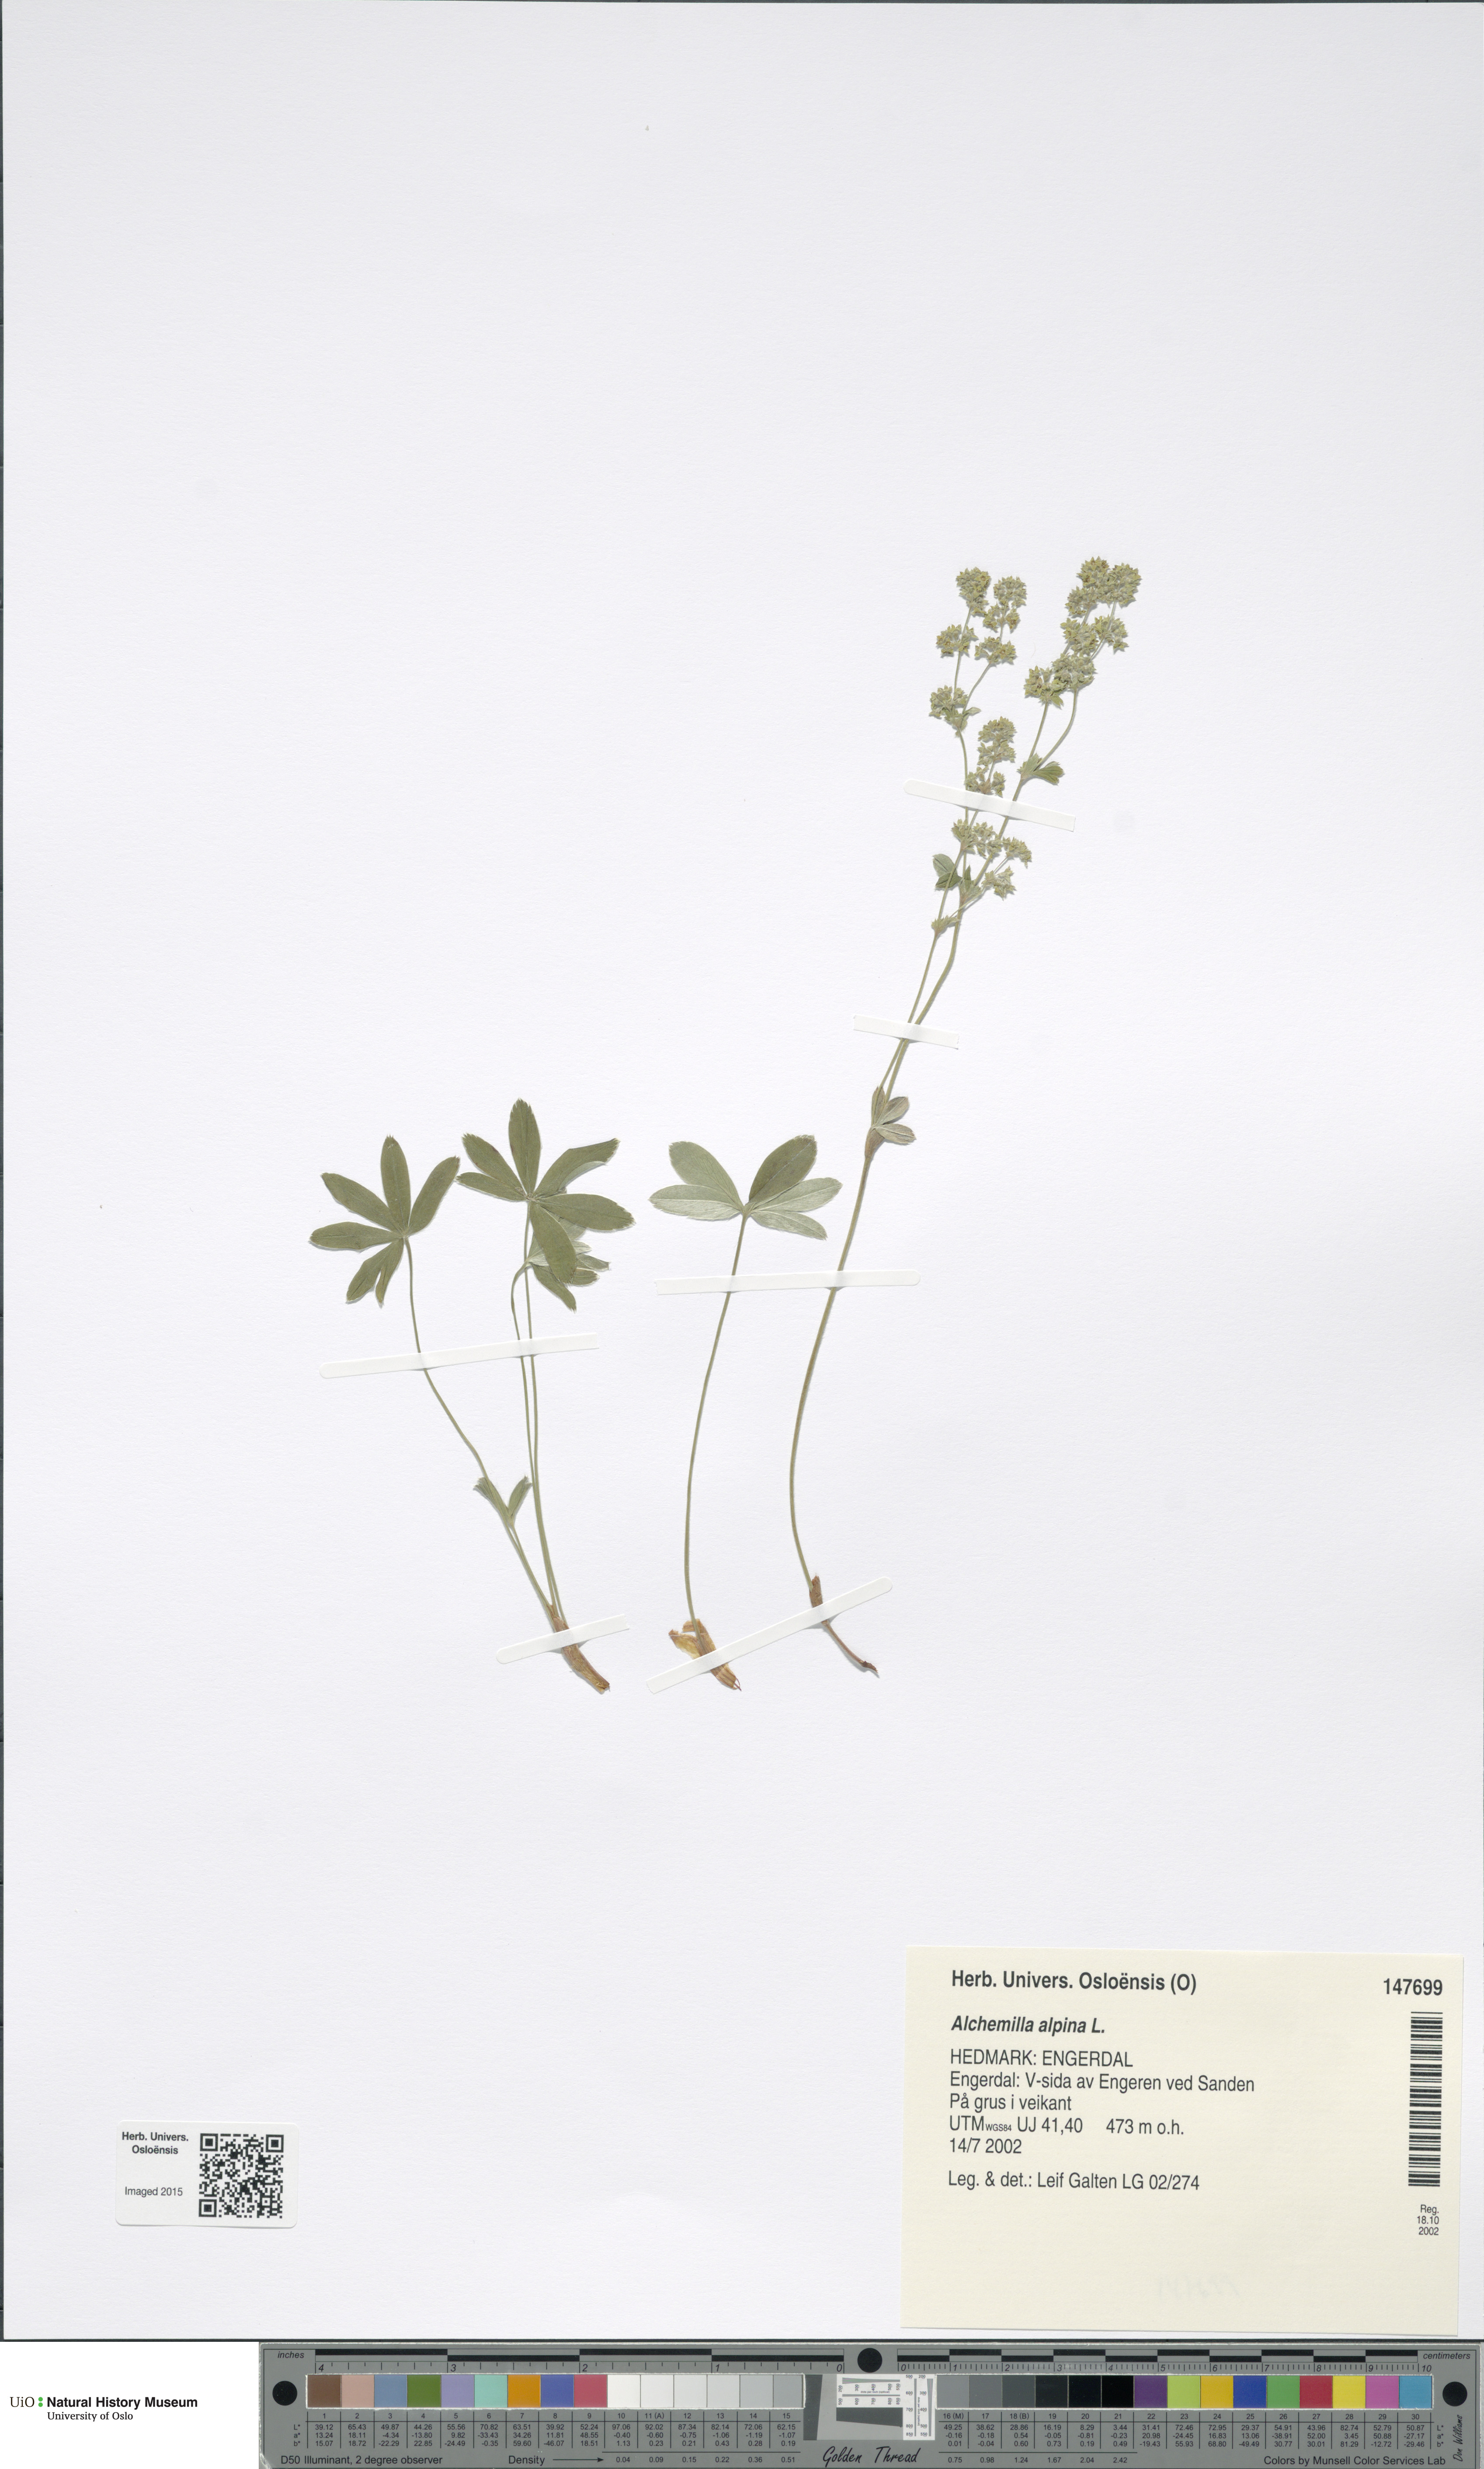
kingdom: Plantae
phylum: Tracheophyta
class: Magnoliopsida
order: Rosales
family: Rosaceae
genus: Alchemilla
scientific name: Alchemilla alpina
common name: Alpine lady's-mantle
